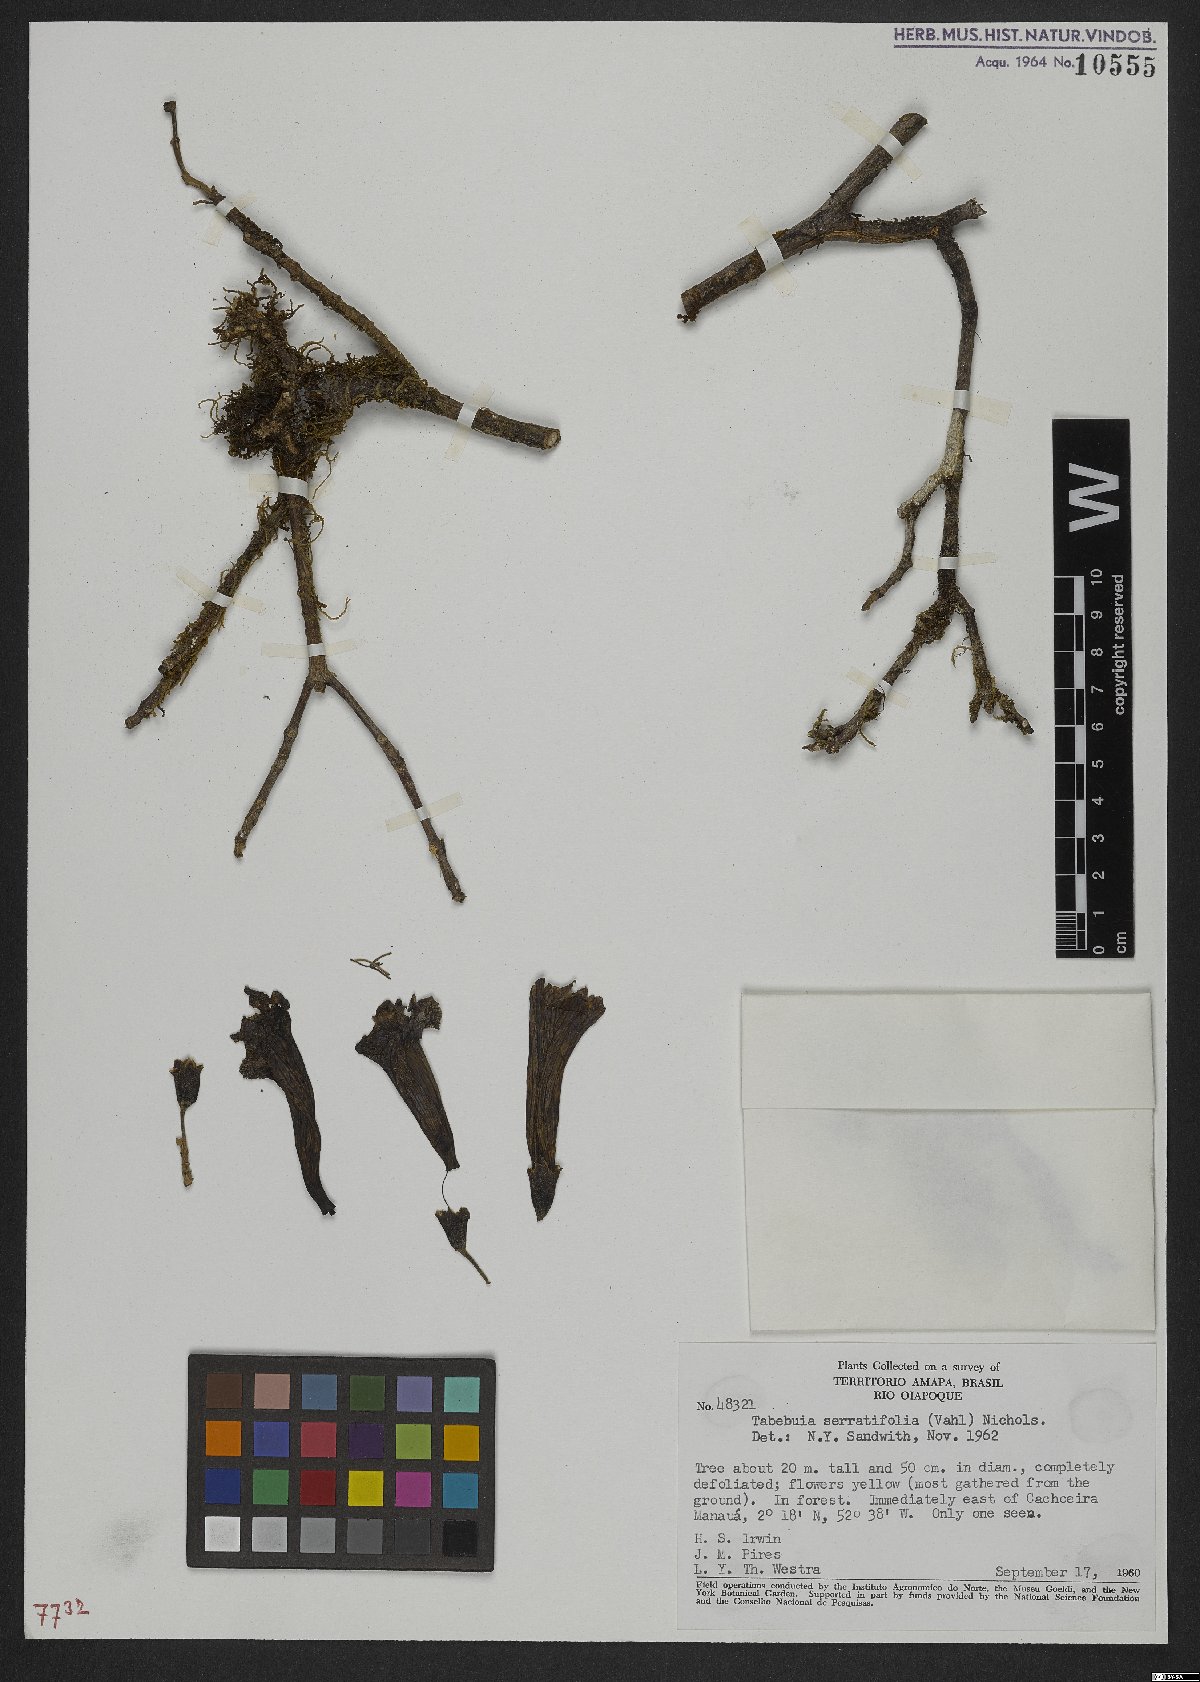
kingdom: Plantae
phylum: Tracheophyta
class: Magnoliopsida
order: Lamiales
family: Bignoniaceae
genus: Handroanthus
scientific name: Handroanthus serratifolius
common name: Yellow ipe
